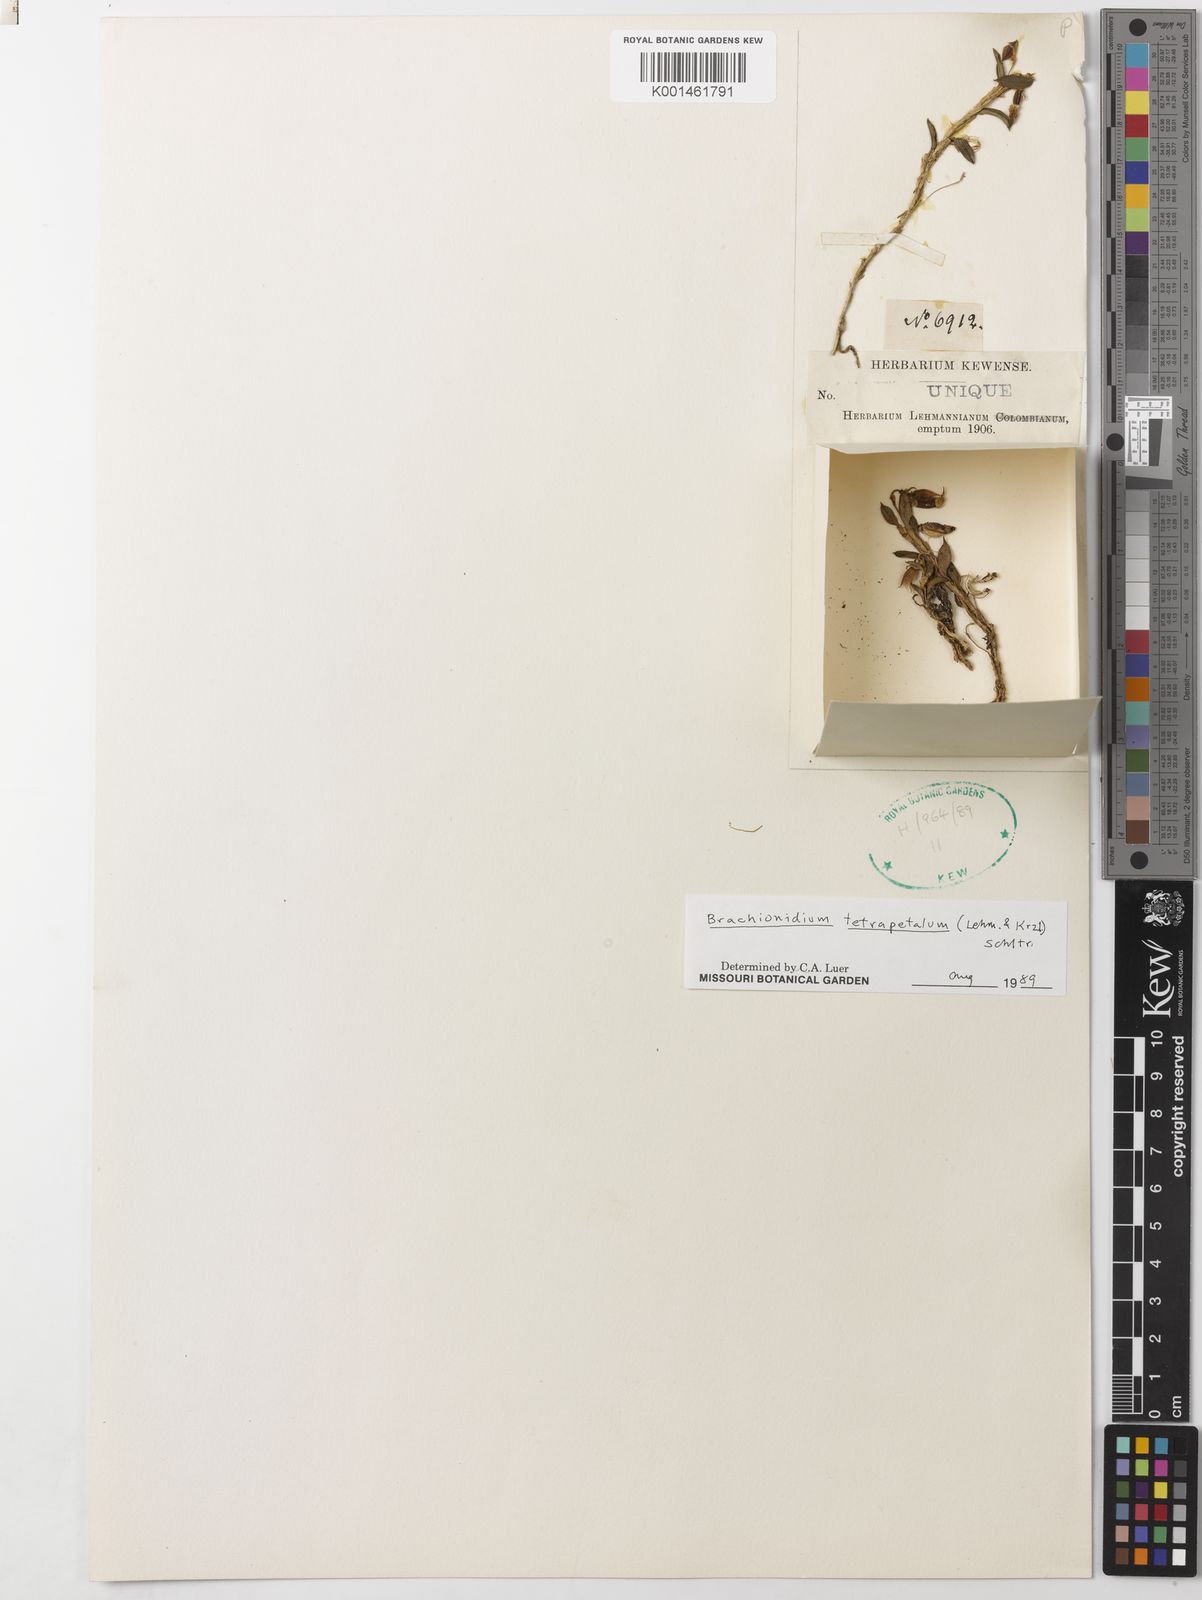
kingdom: Plantae
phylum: Tracheophyta
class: Liliopsida
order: Asparagales
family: Orchidaceae
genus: Brachionidium
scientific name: Brachionidium tetrapetalum
